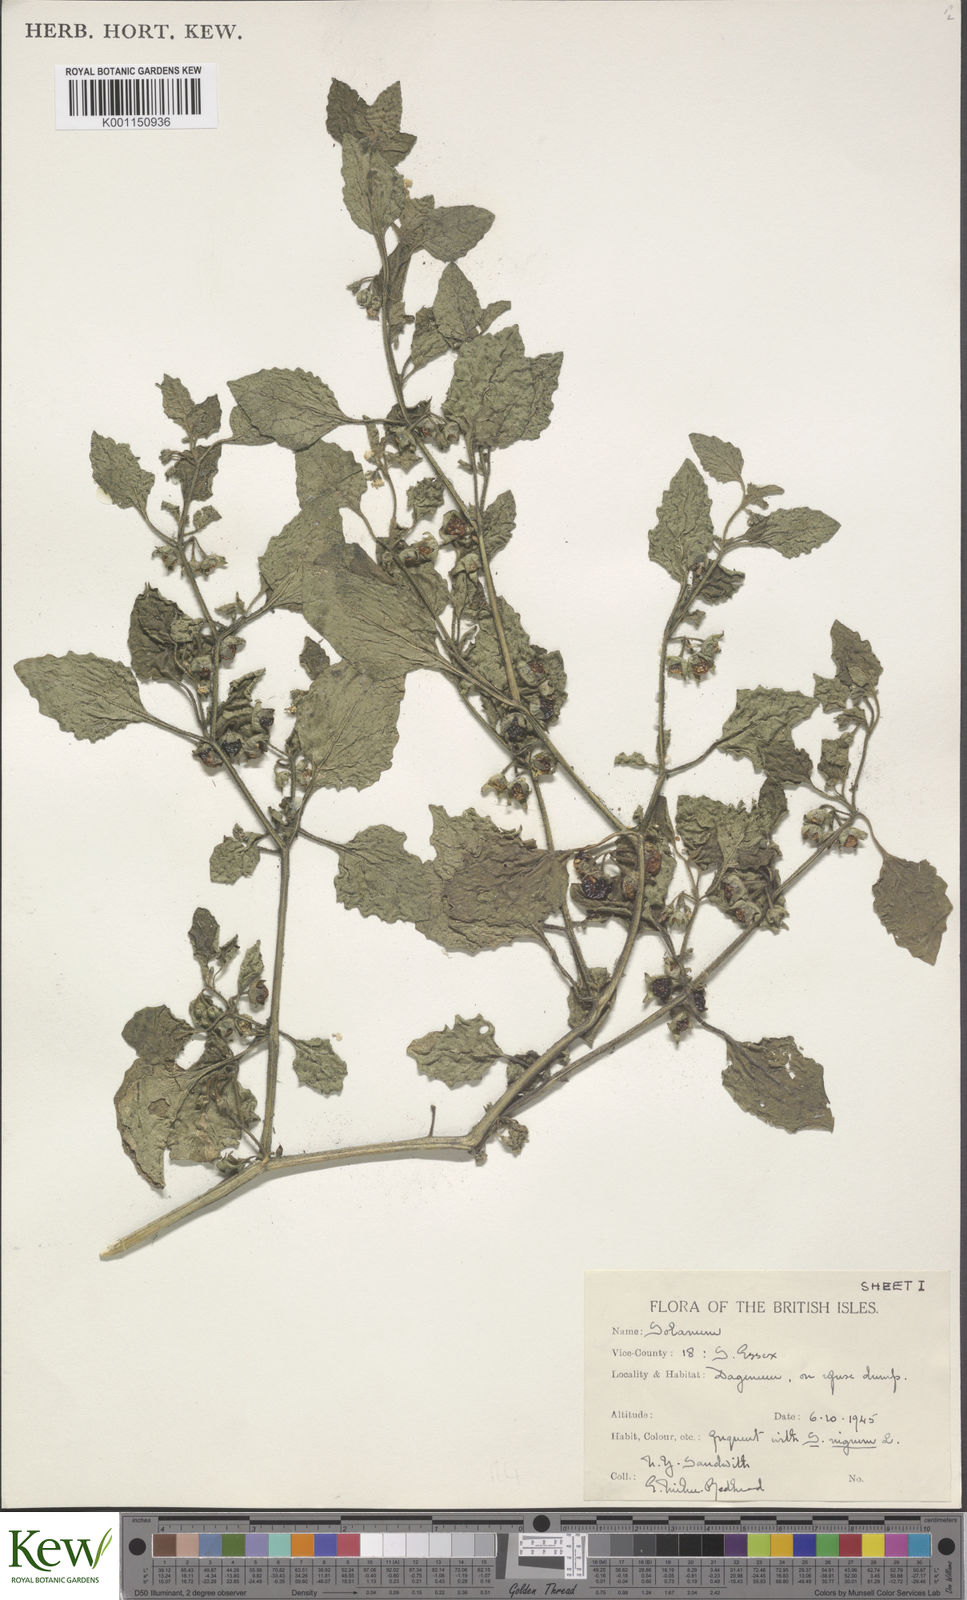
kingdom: Plantae
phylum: Tracheophyta
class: Magnoliopsida
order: Solanales
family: Solanaceae
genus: Solanum
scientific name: Solanum sarrachoides
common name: Leafy-fruited nightshade
